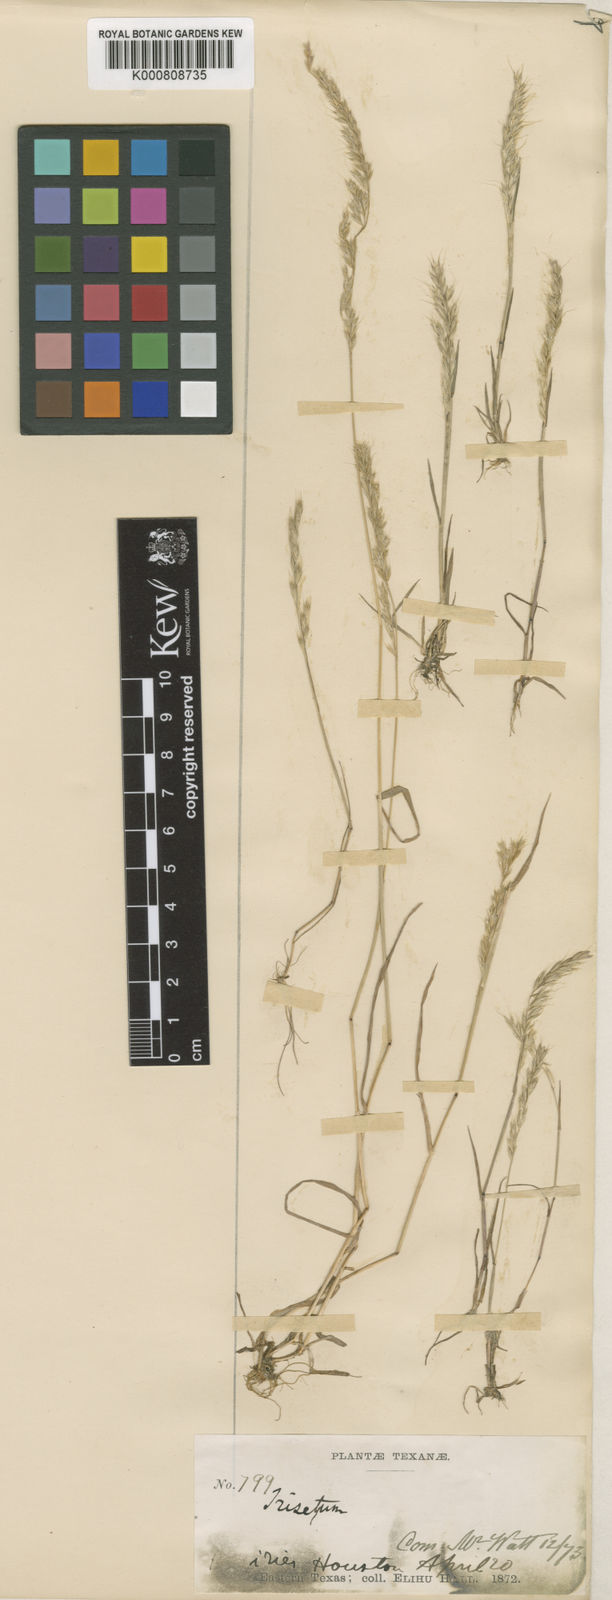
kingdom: Plantae
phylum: Tracheophyta
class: Liliopsida
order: Poales
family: Poaceae
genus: Sphenopholis
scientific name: Sphenopholis interrupta
